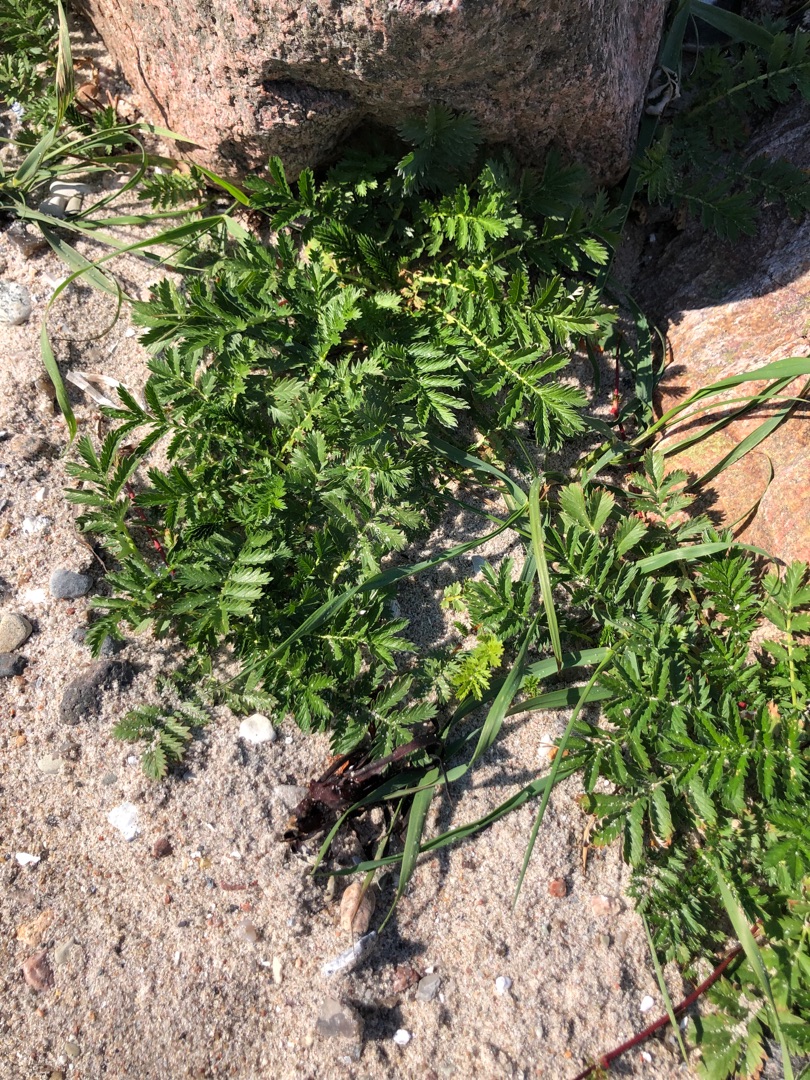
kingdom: Plantae
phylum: Tracheophyta
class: Magnoliopsida
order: Rosales
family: Rosaceae
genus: Argentina
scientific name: Argentina anserina
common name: Gåsepotentil
